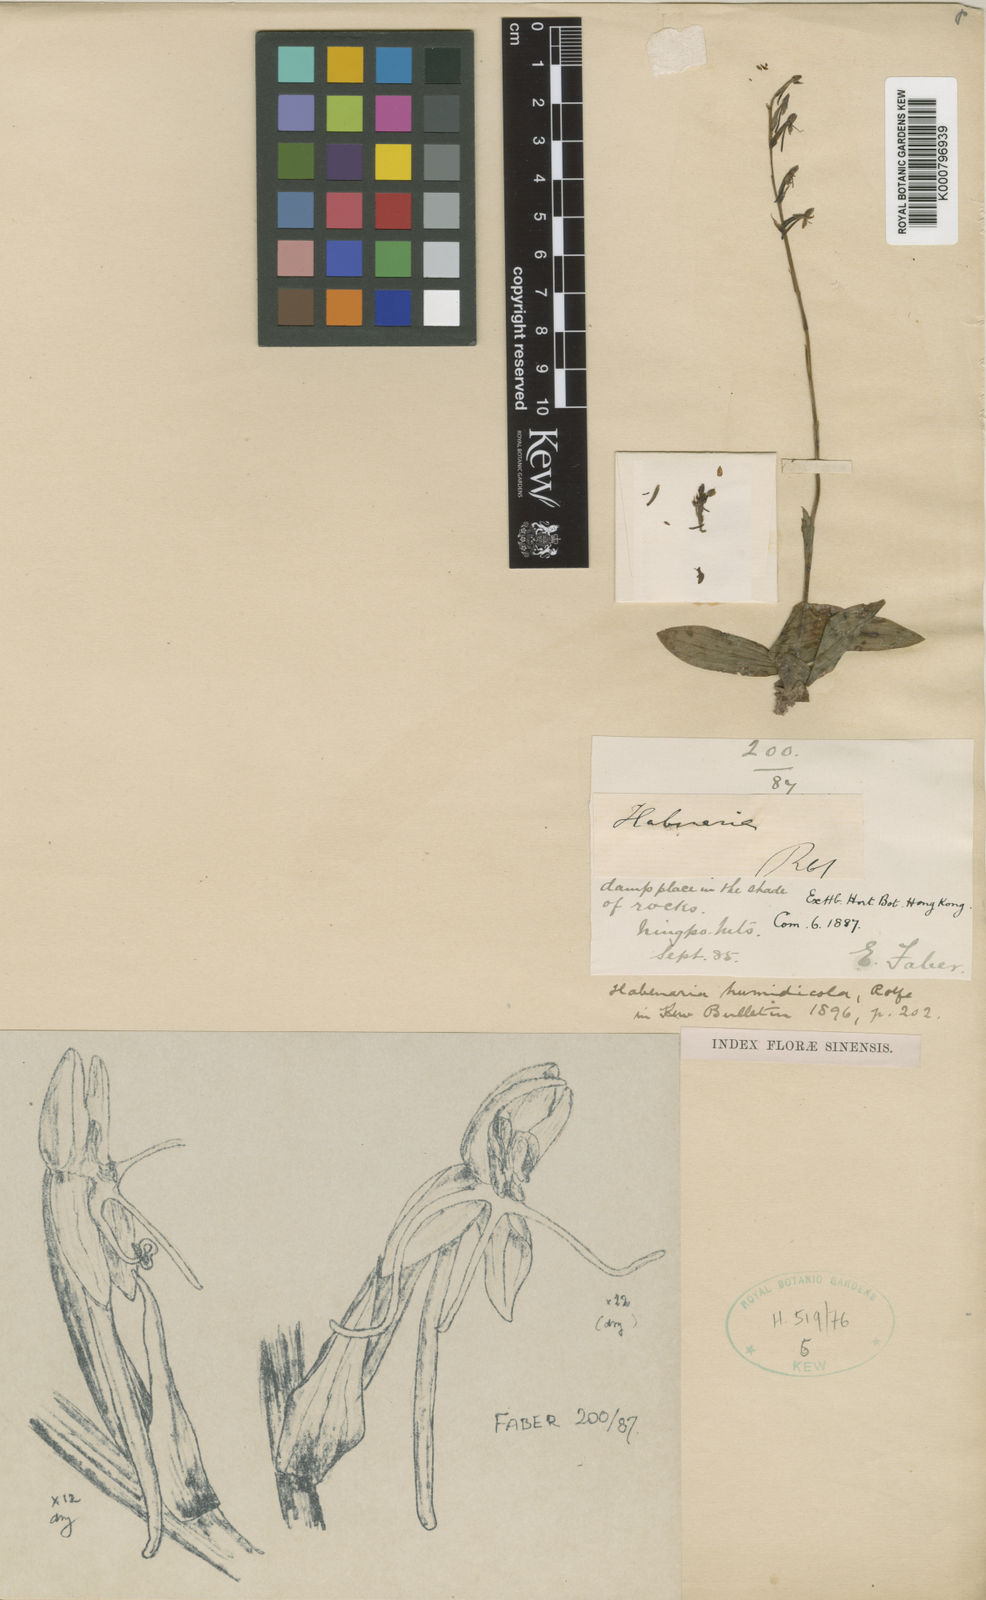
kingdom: Plantae
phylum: Tracheophyta
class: Liliopsida
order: Asparagales
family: Orchidaceae
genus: Habenaria
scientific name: Habenaria humidicola
